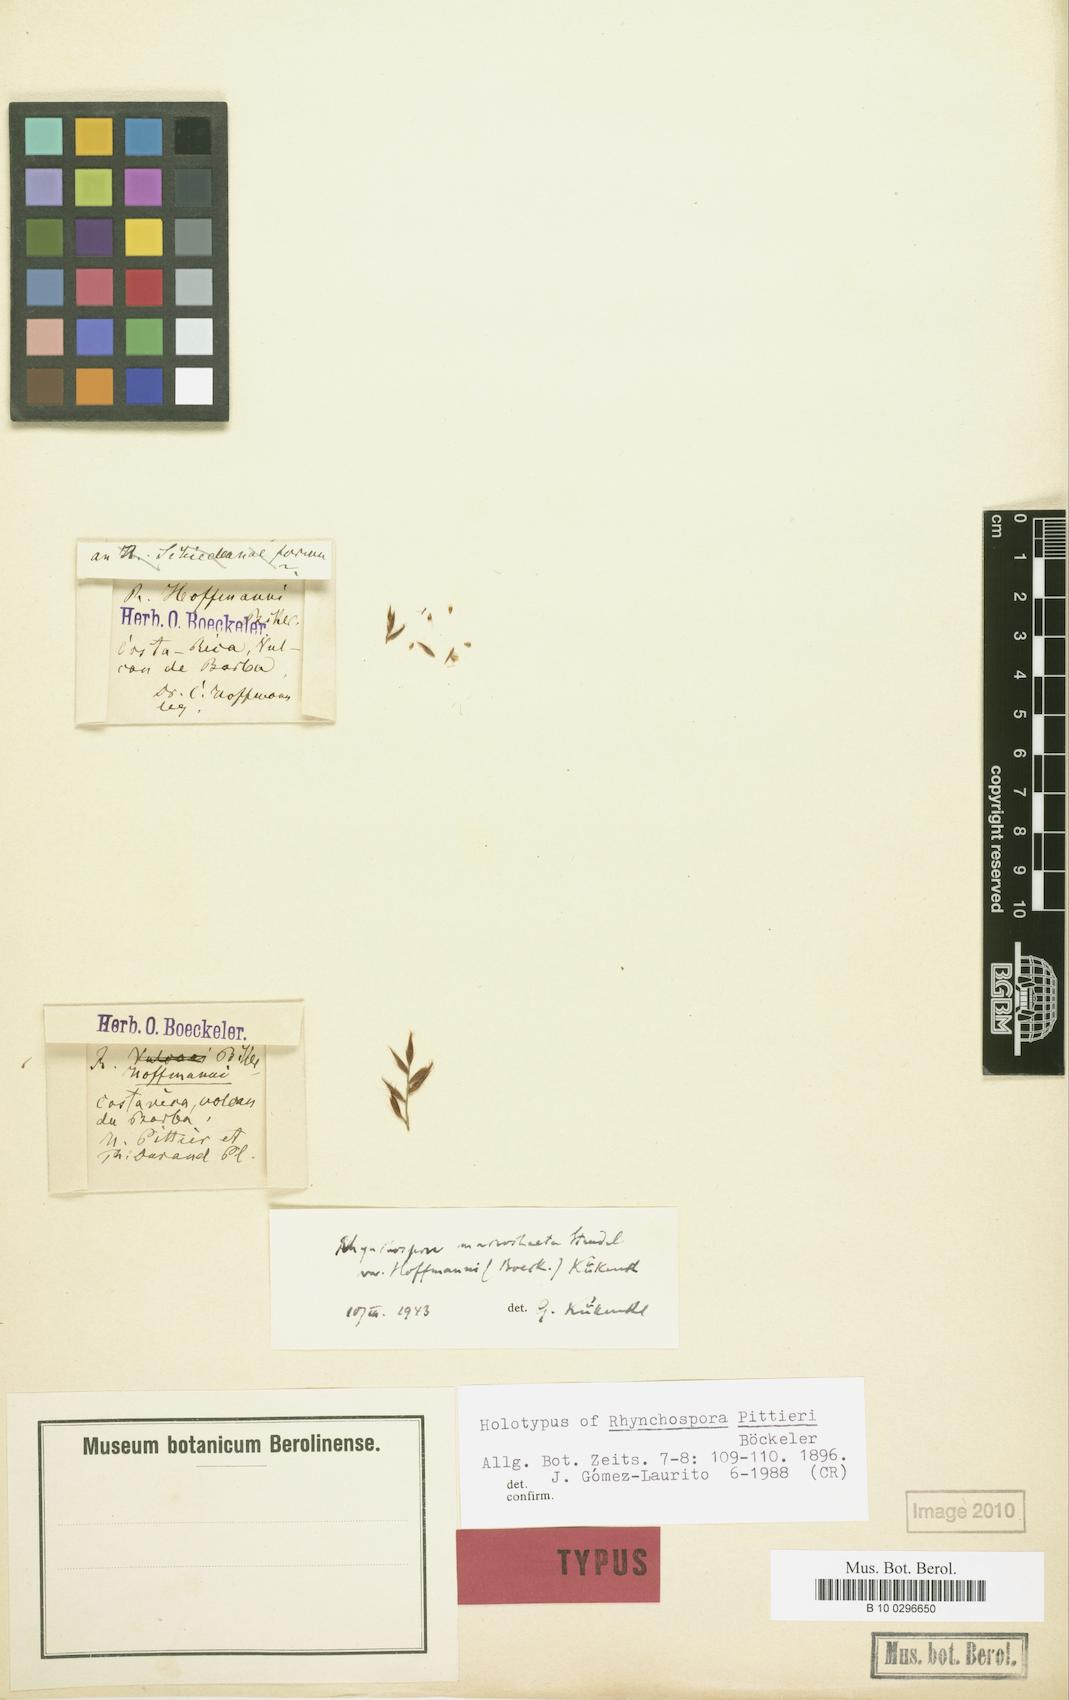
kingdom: Plantae
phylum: Tracheophyta
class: Liliopsida
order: Poales
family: Cyperaceae
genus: Rhynchospora
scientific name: Rhynchospora macrochaeta
